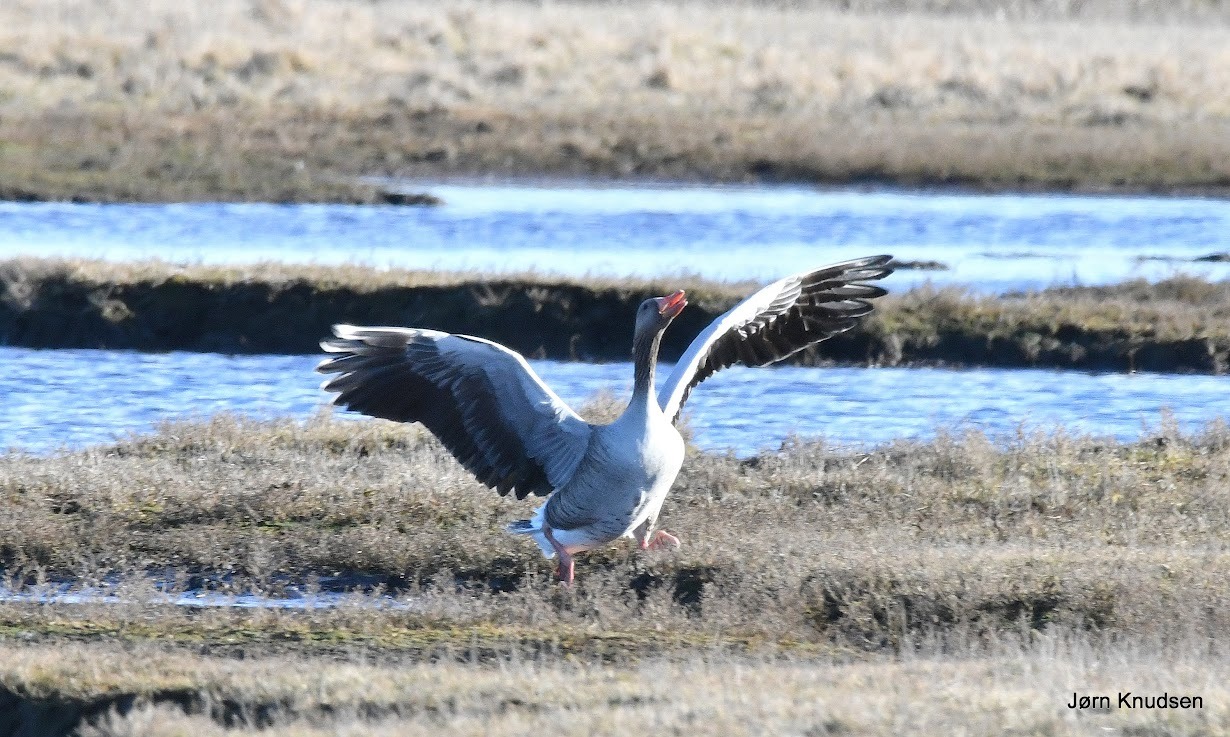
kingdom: Animalia
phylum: Chordata
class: Aves
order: Anseriformes
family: Anatidae
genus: Anser
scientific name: Anser anser
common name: Grågås
